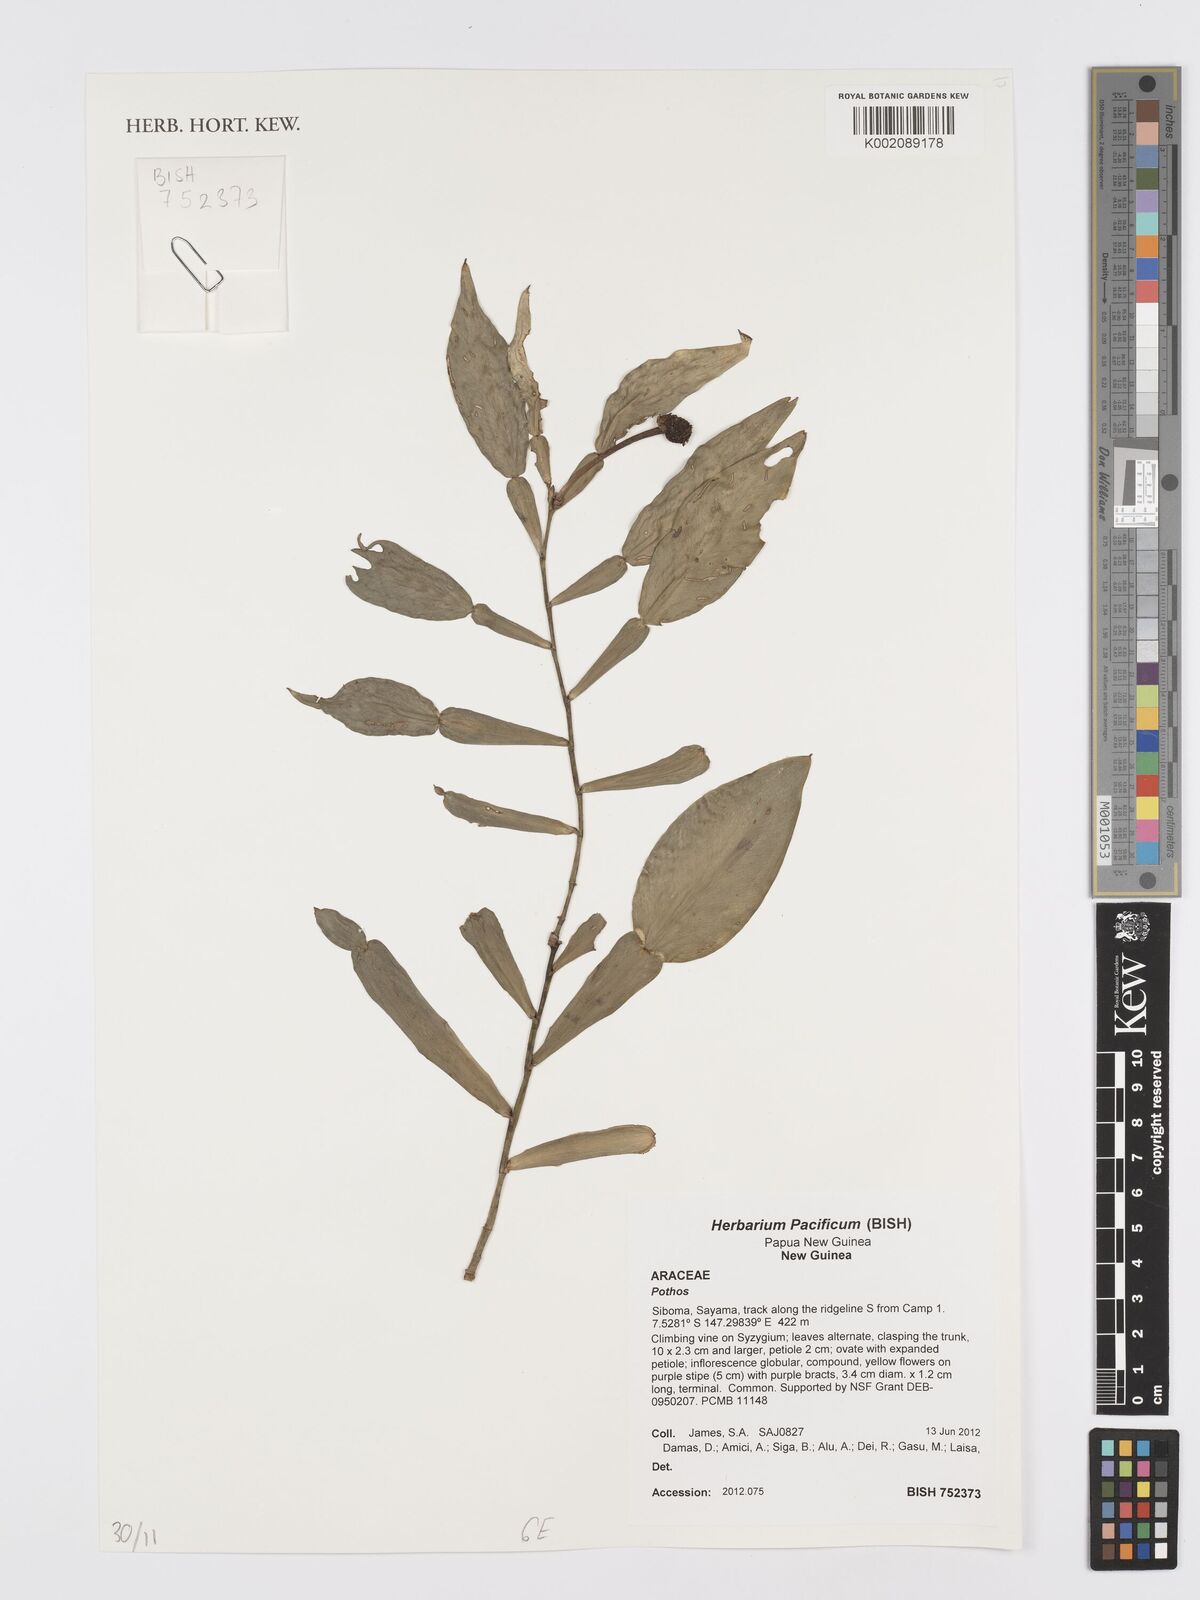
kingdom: Plantae
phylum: Tracheophyta
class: Liliopsida
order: Alismatales
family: Araceae
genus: Pothos
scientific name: Pothos
